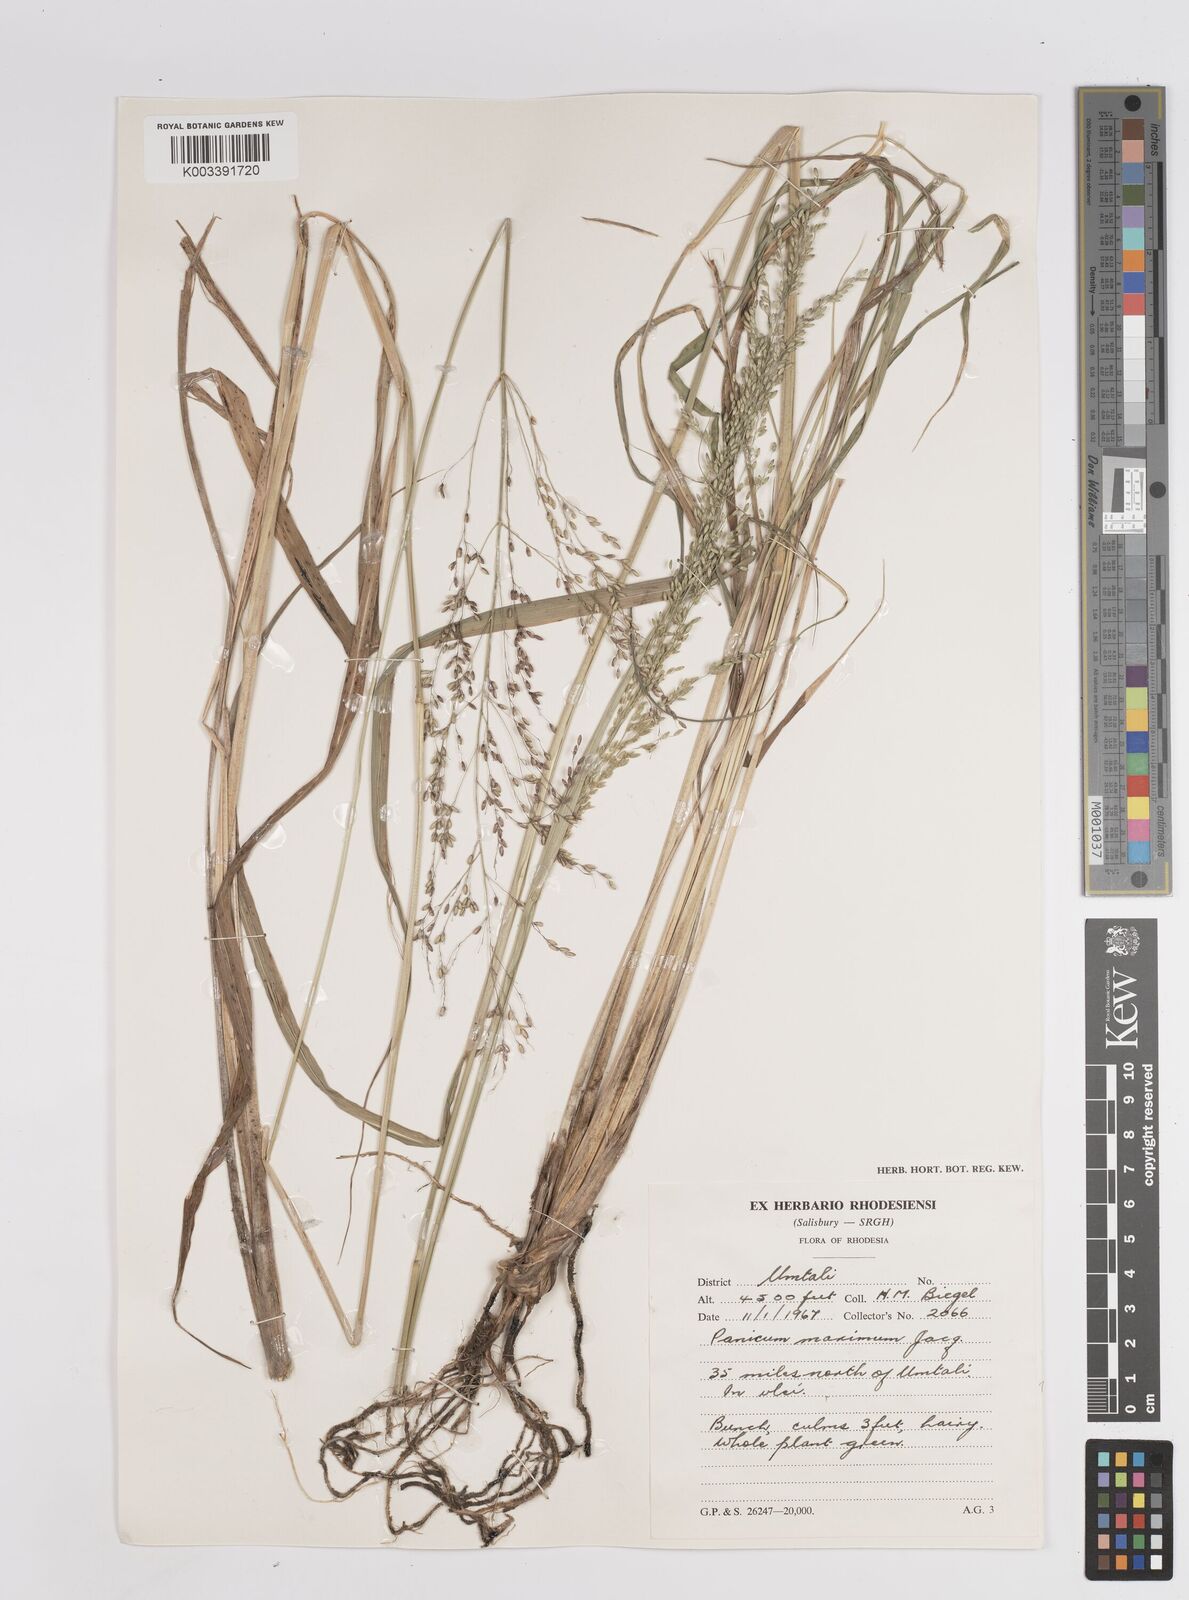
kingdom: Plantae
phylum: Tracheophyta
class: Liliopsida
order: Poales
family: Poaceae
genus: Megathyrsus
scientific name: Megathyrsus maximus
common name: Guineagrass
